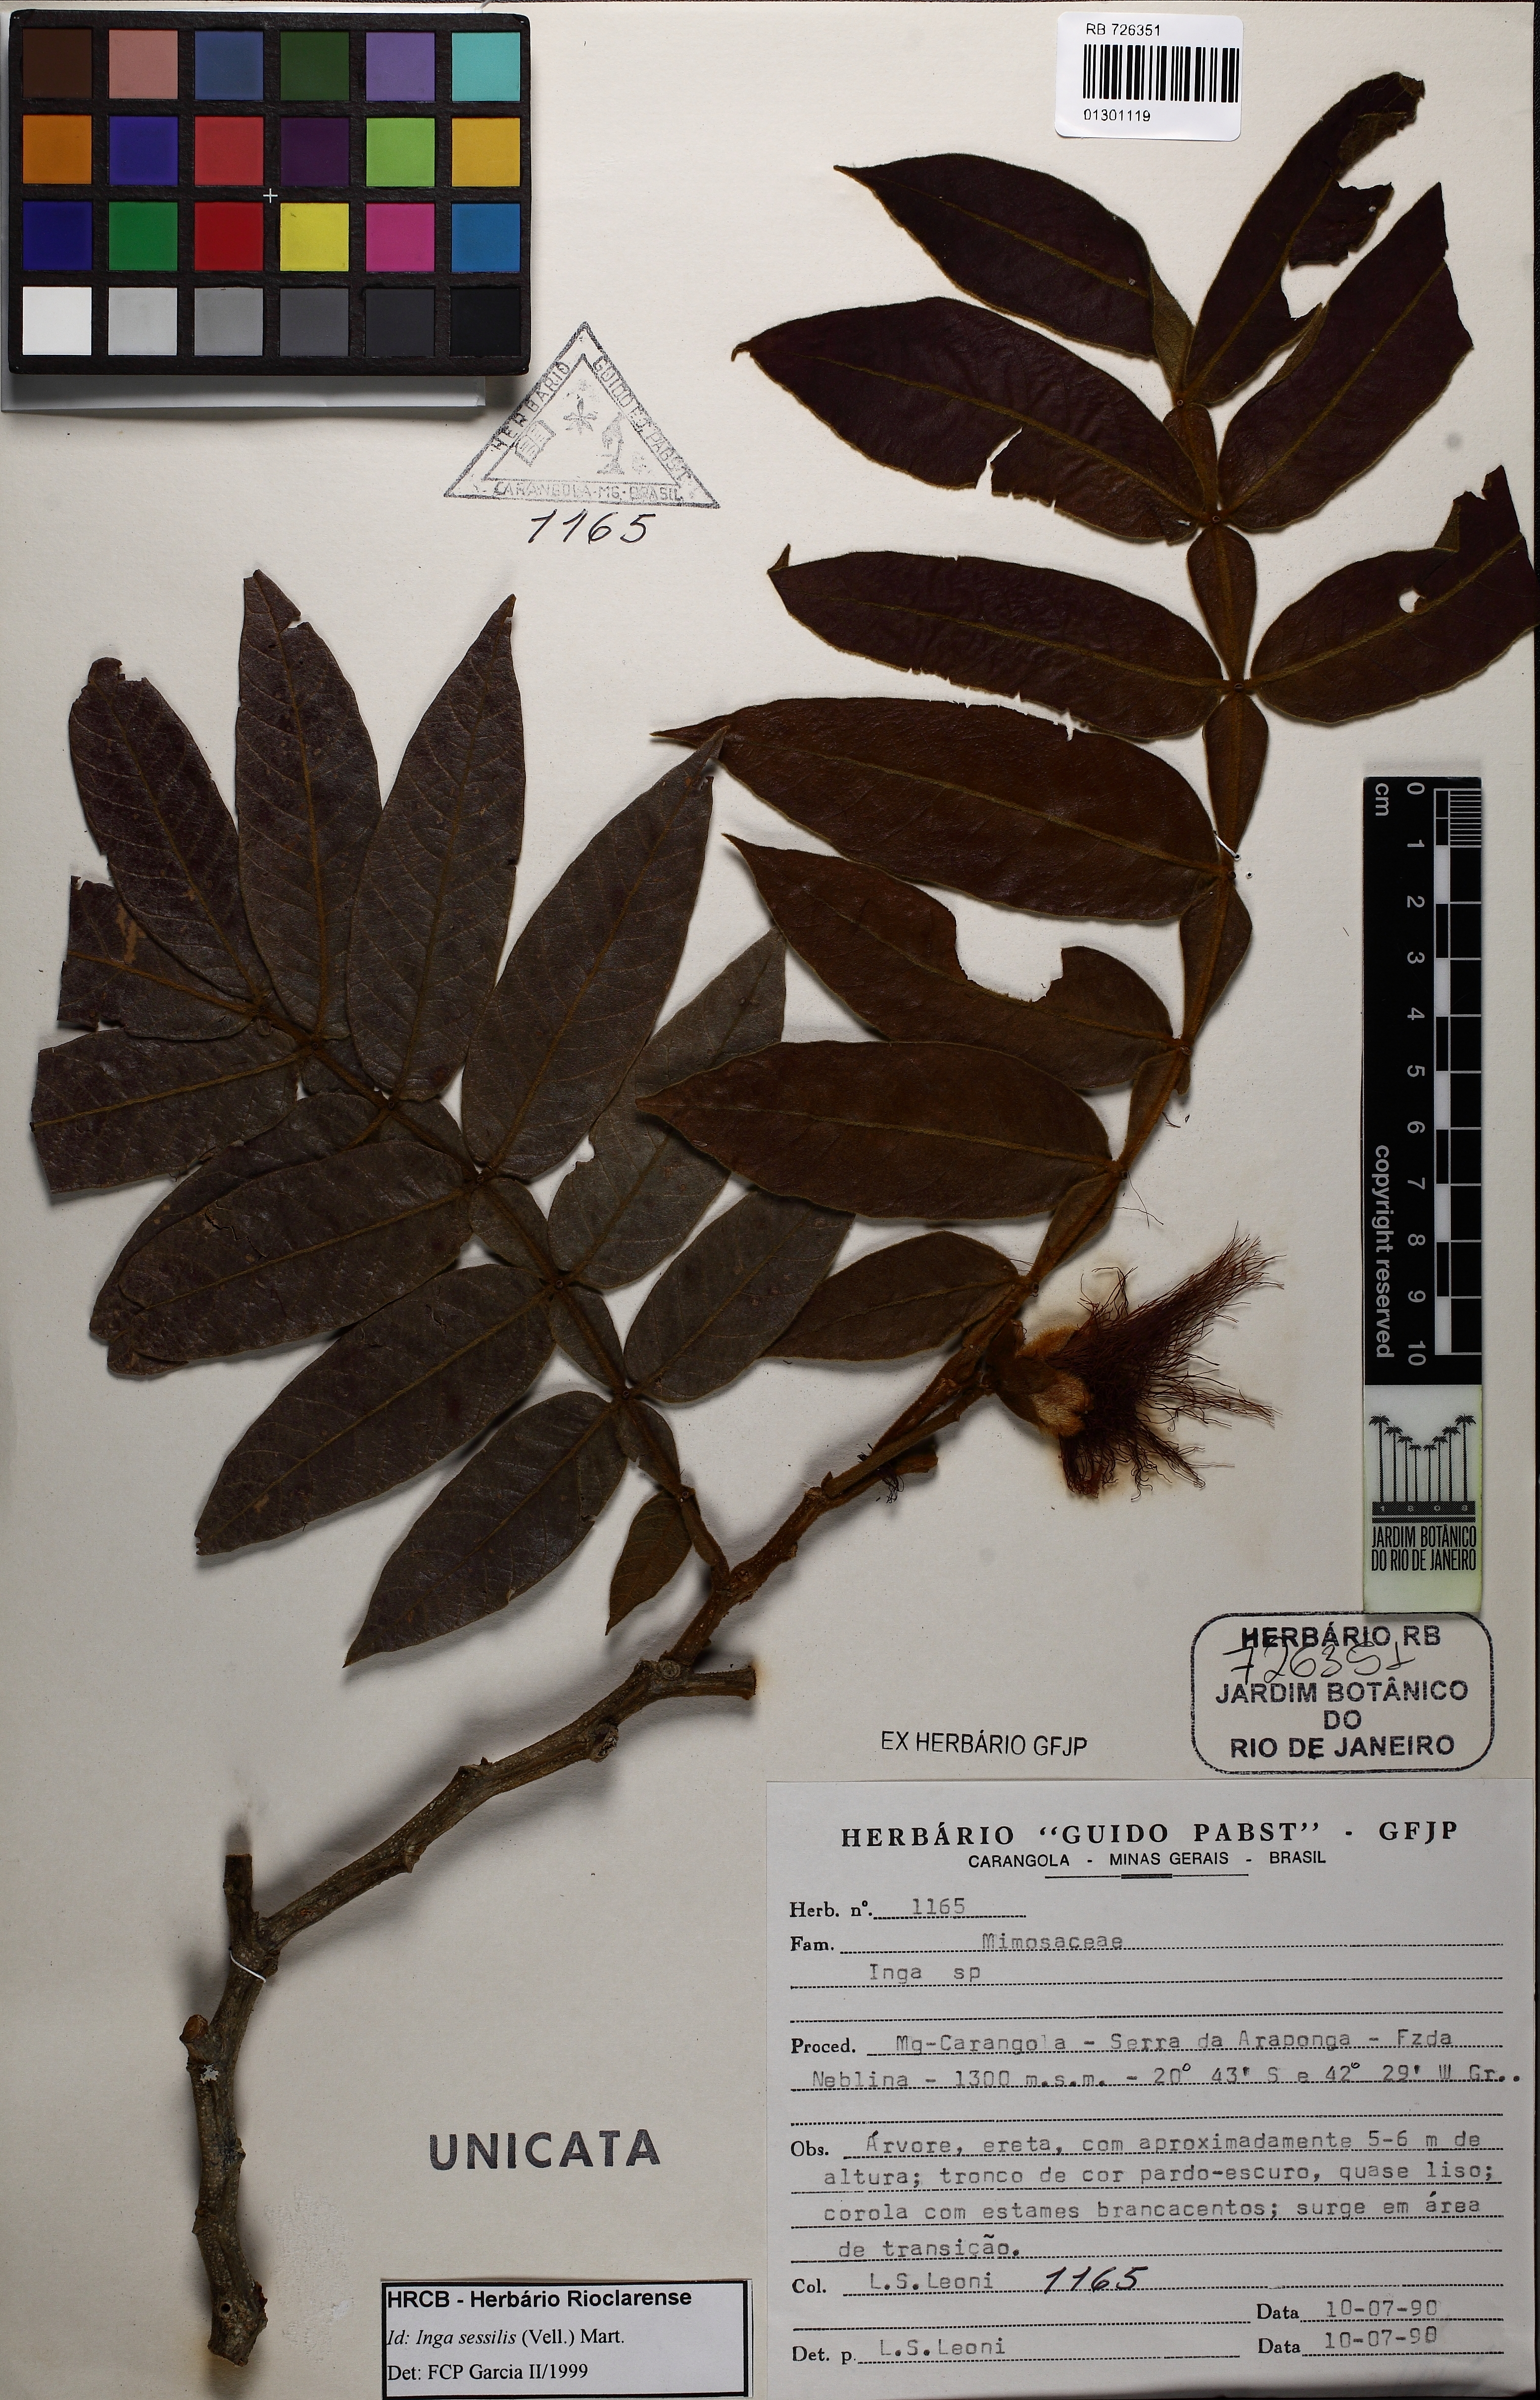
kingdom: Plantae
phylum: Tracheophyta
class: Magnoliopsida
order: Fabales
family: Fabaceae
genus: Inga
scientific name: Inga sessilis
